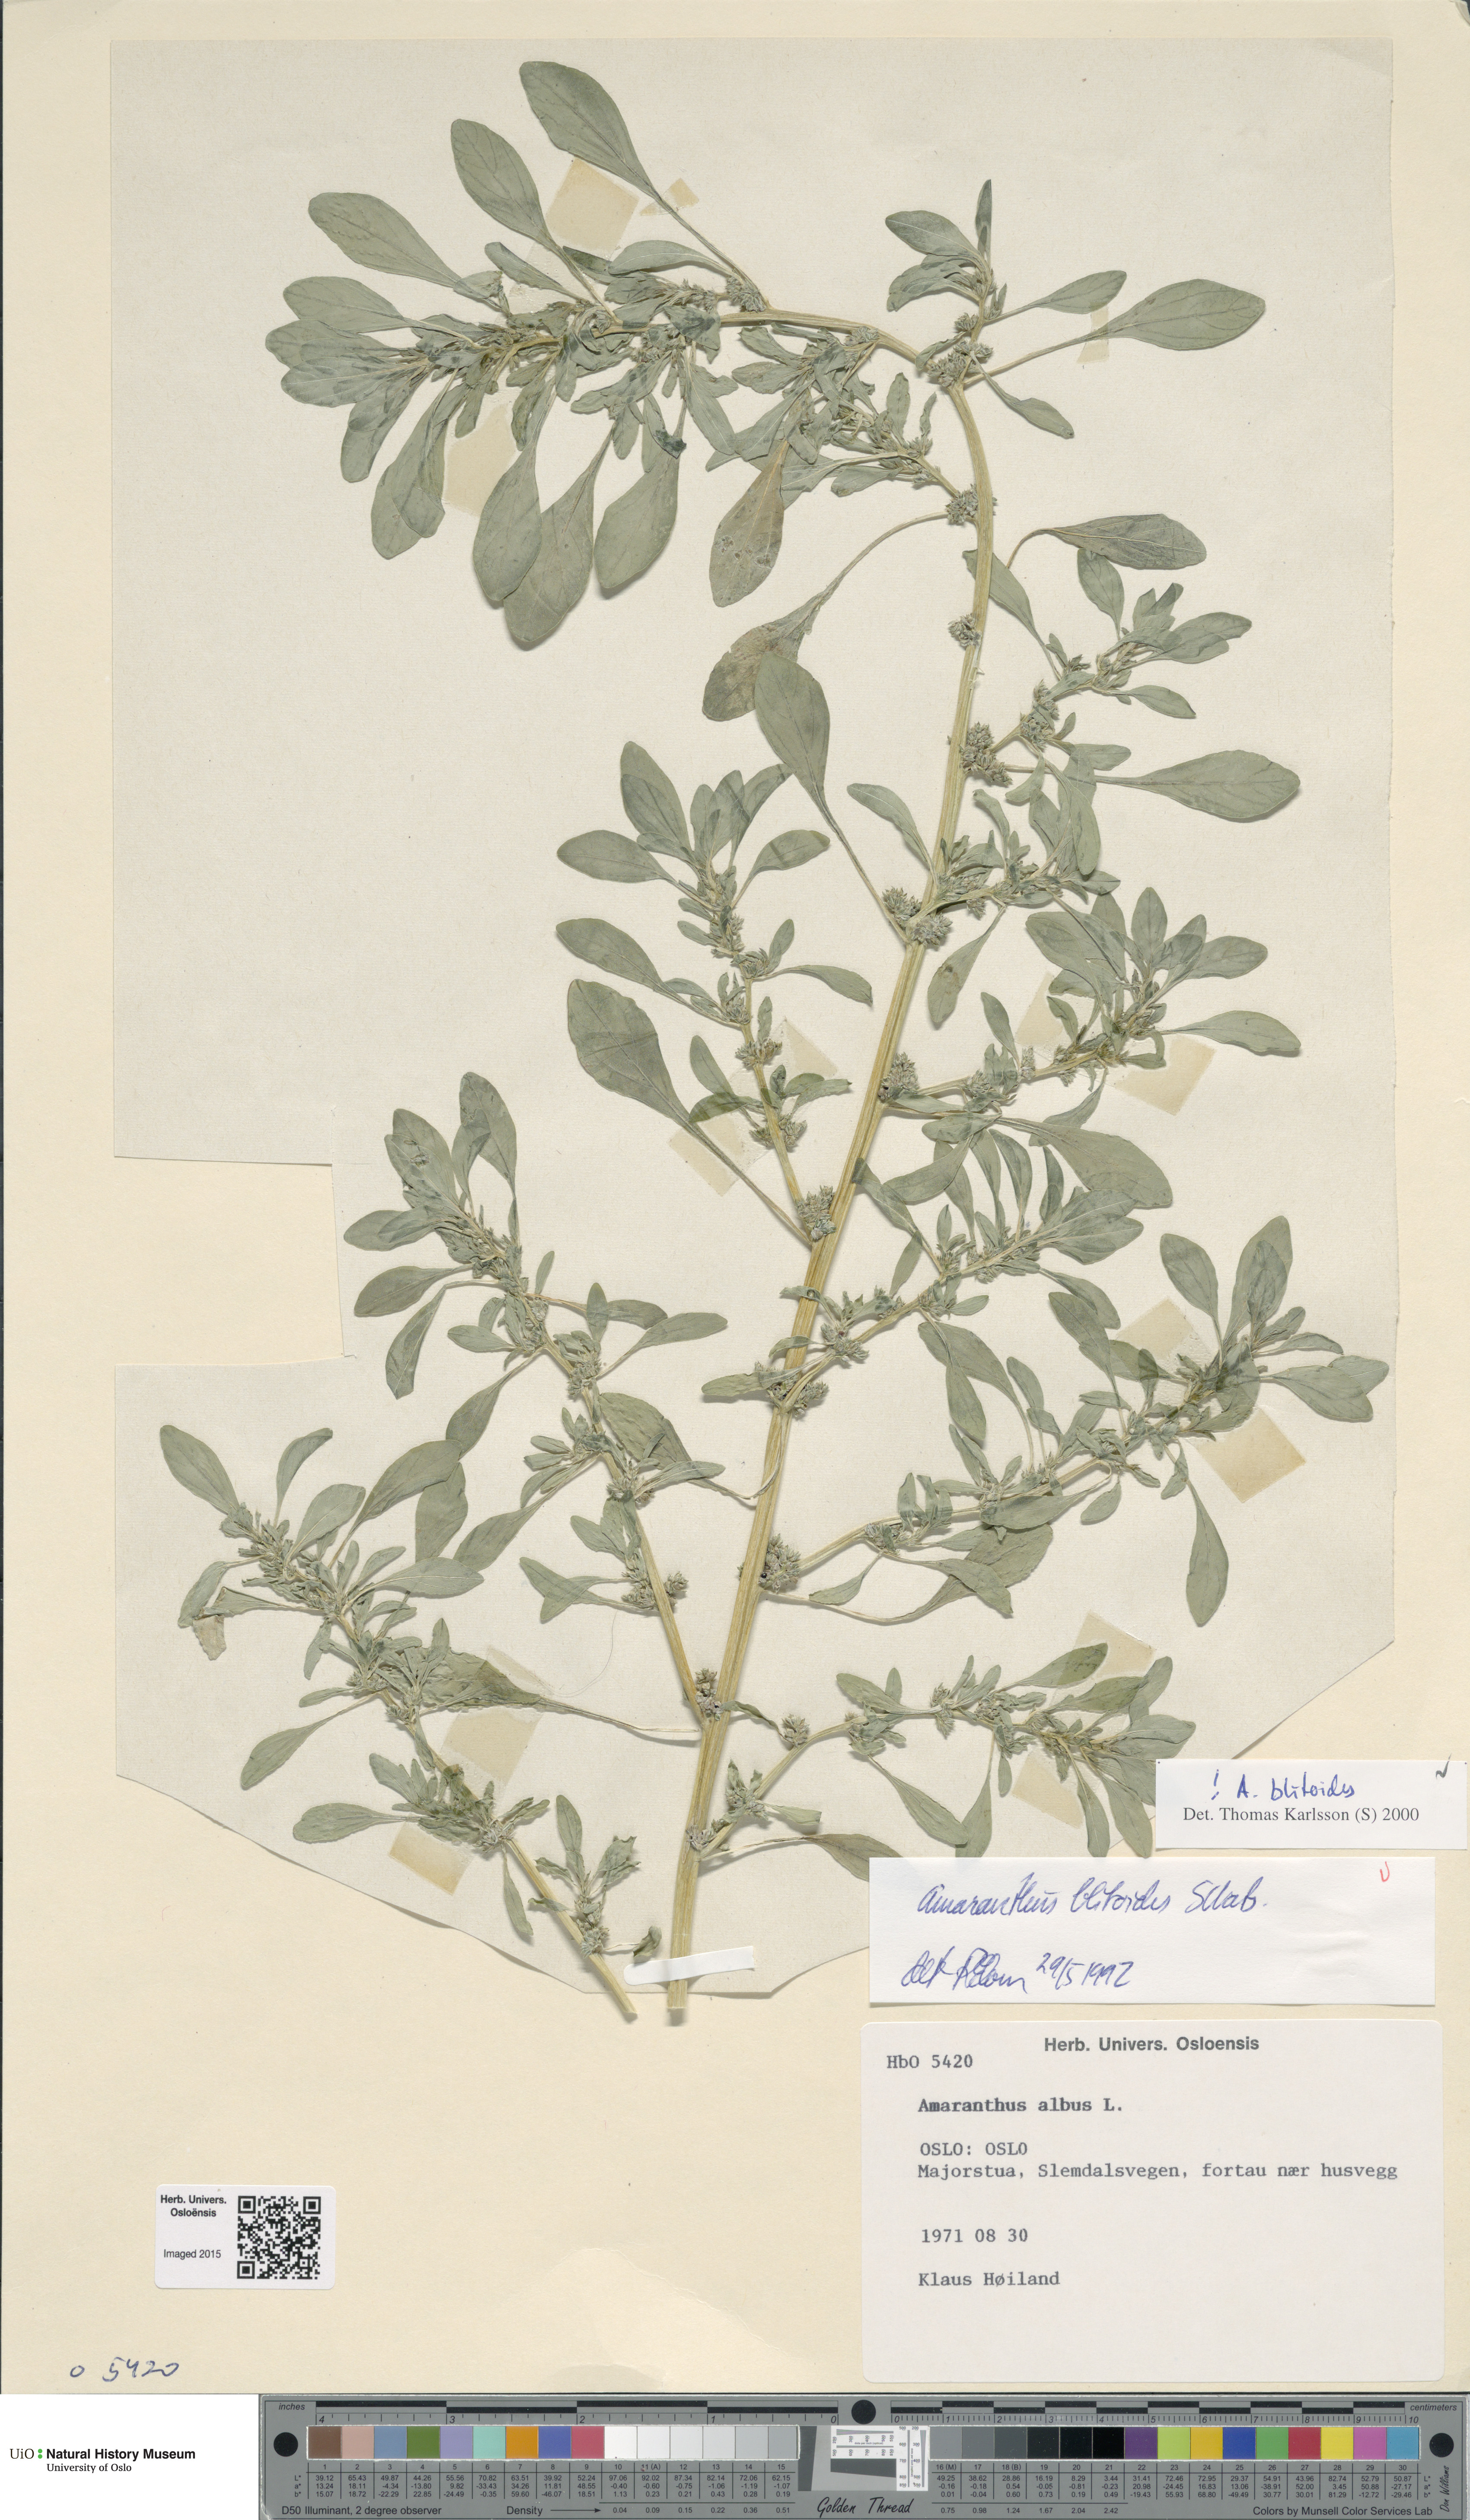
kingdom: Plantae
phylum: Tracheophyta
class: Magnoliopsida
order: Caryophyllales
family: Amaranthaceae
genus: Amaranthus
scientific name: Amaranthus blitoides
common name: Prostrate pigweed
